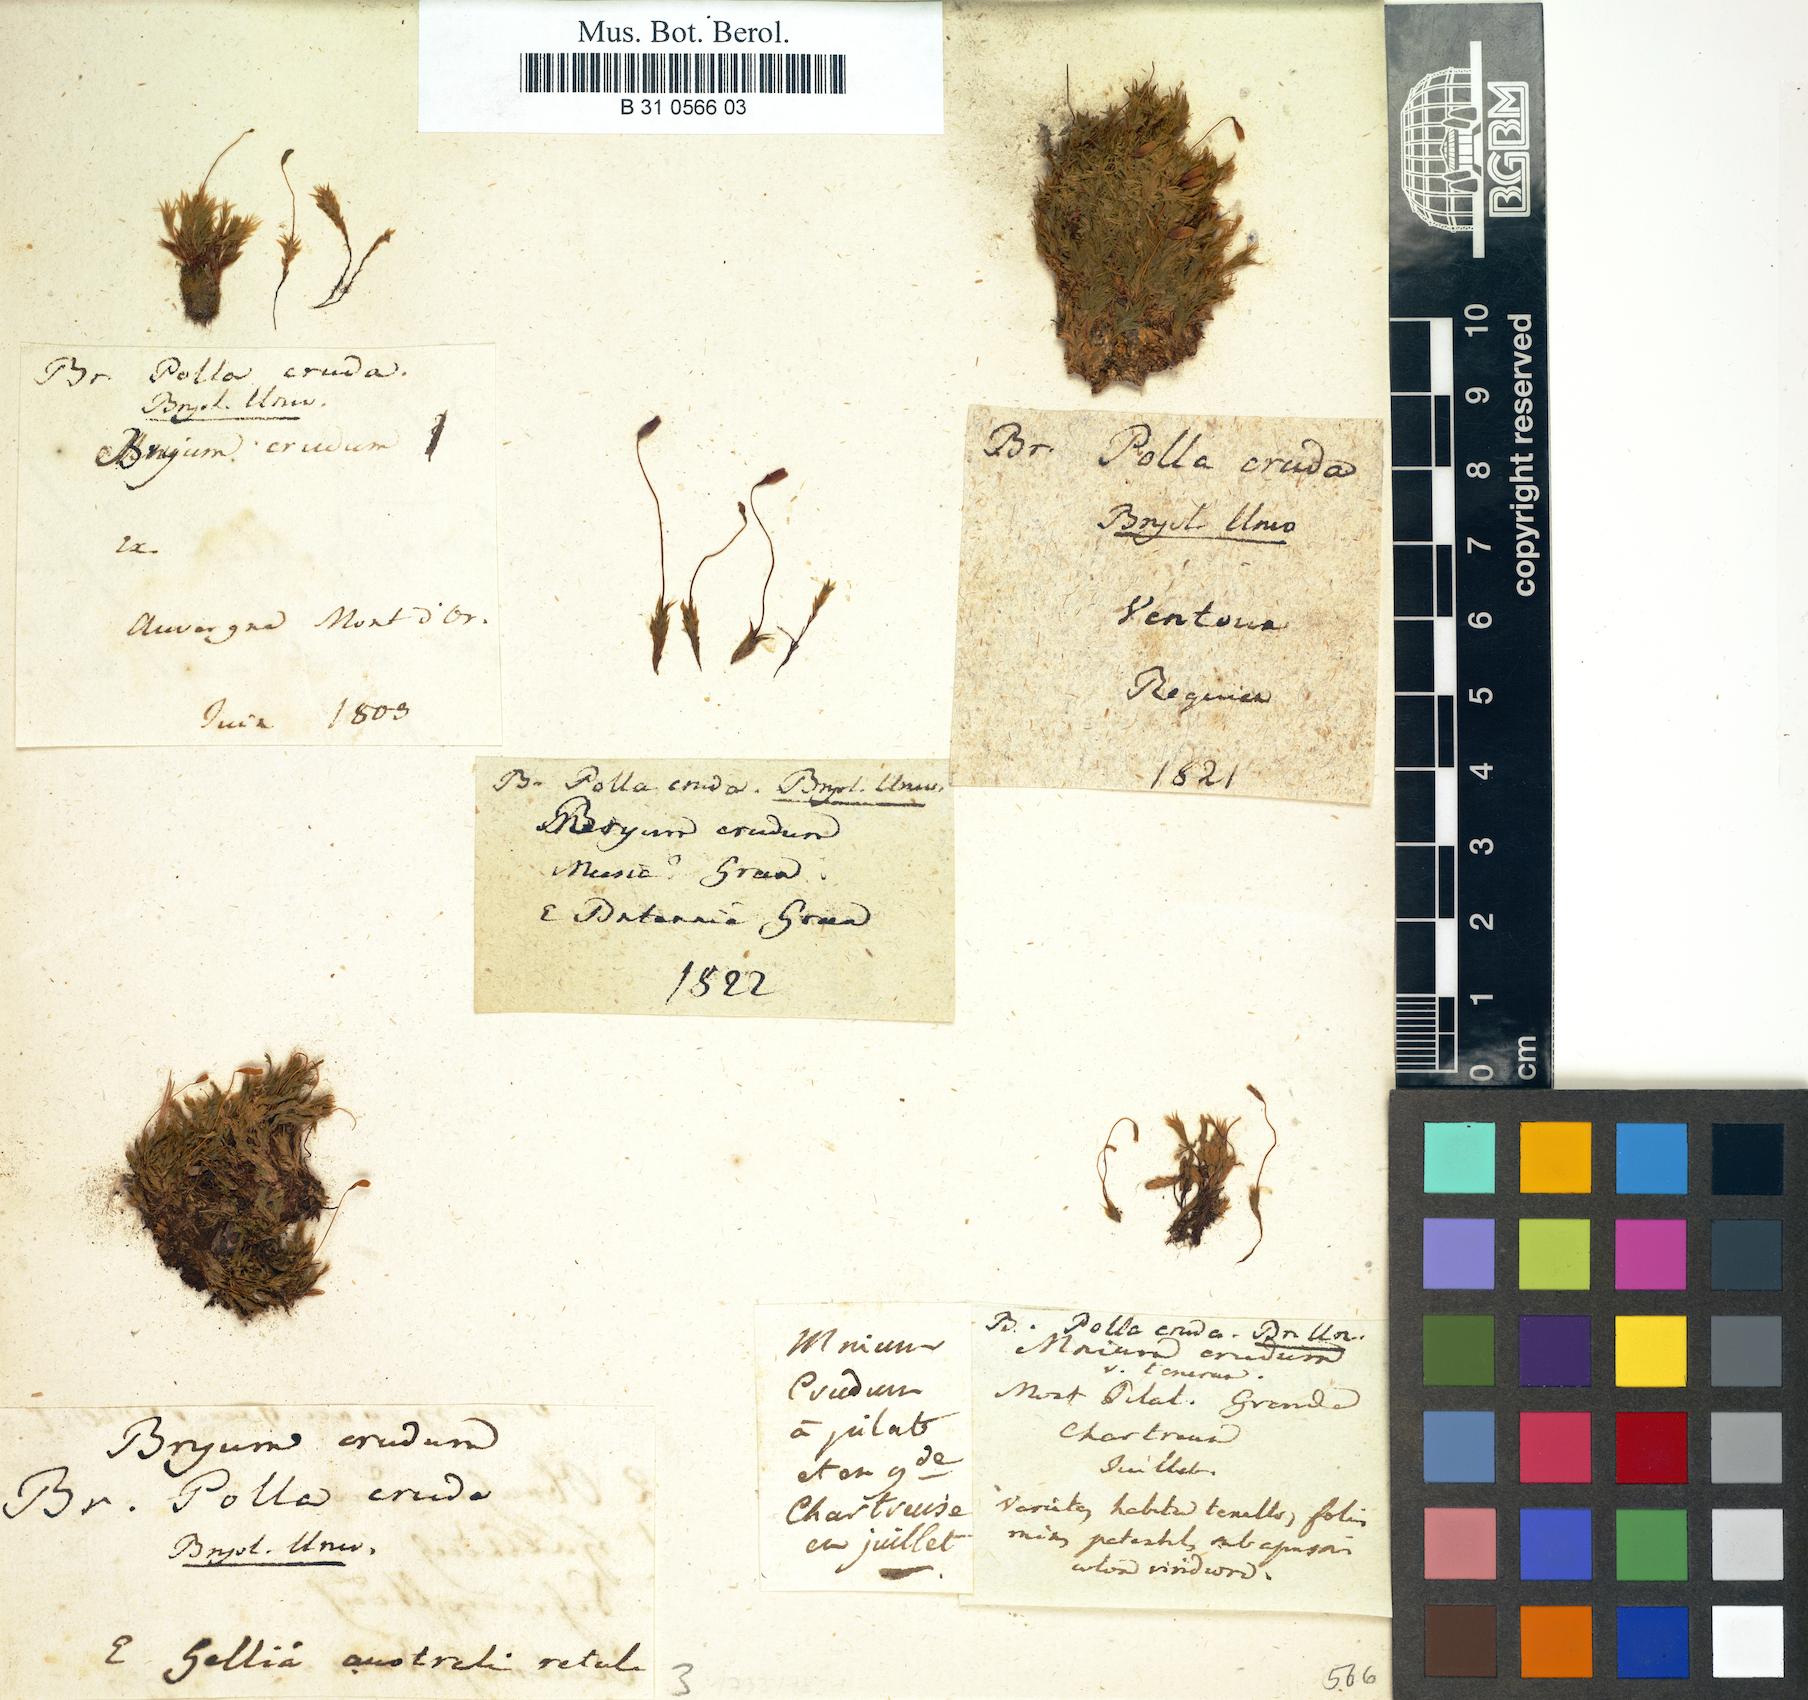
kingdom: Plantae
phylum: Bryophyta
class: Bryopsida
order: Bryales
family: Mniaceae
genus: Pohlia
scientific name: Pohlia cruda
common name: Opal nodding moss
